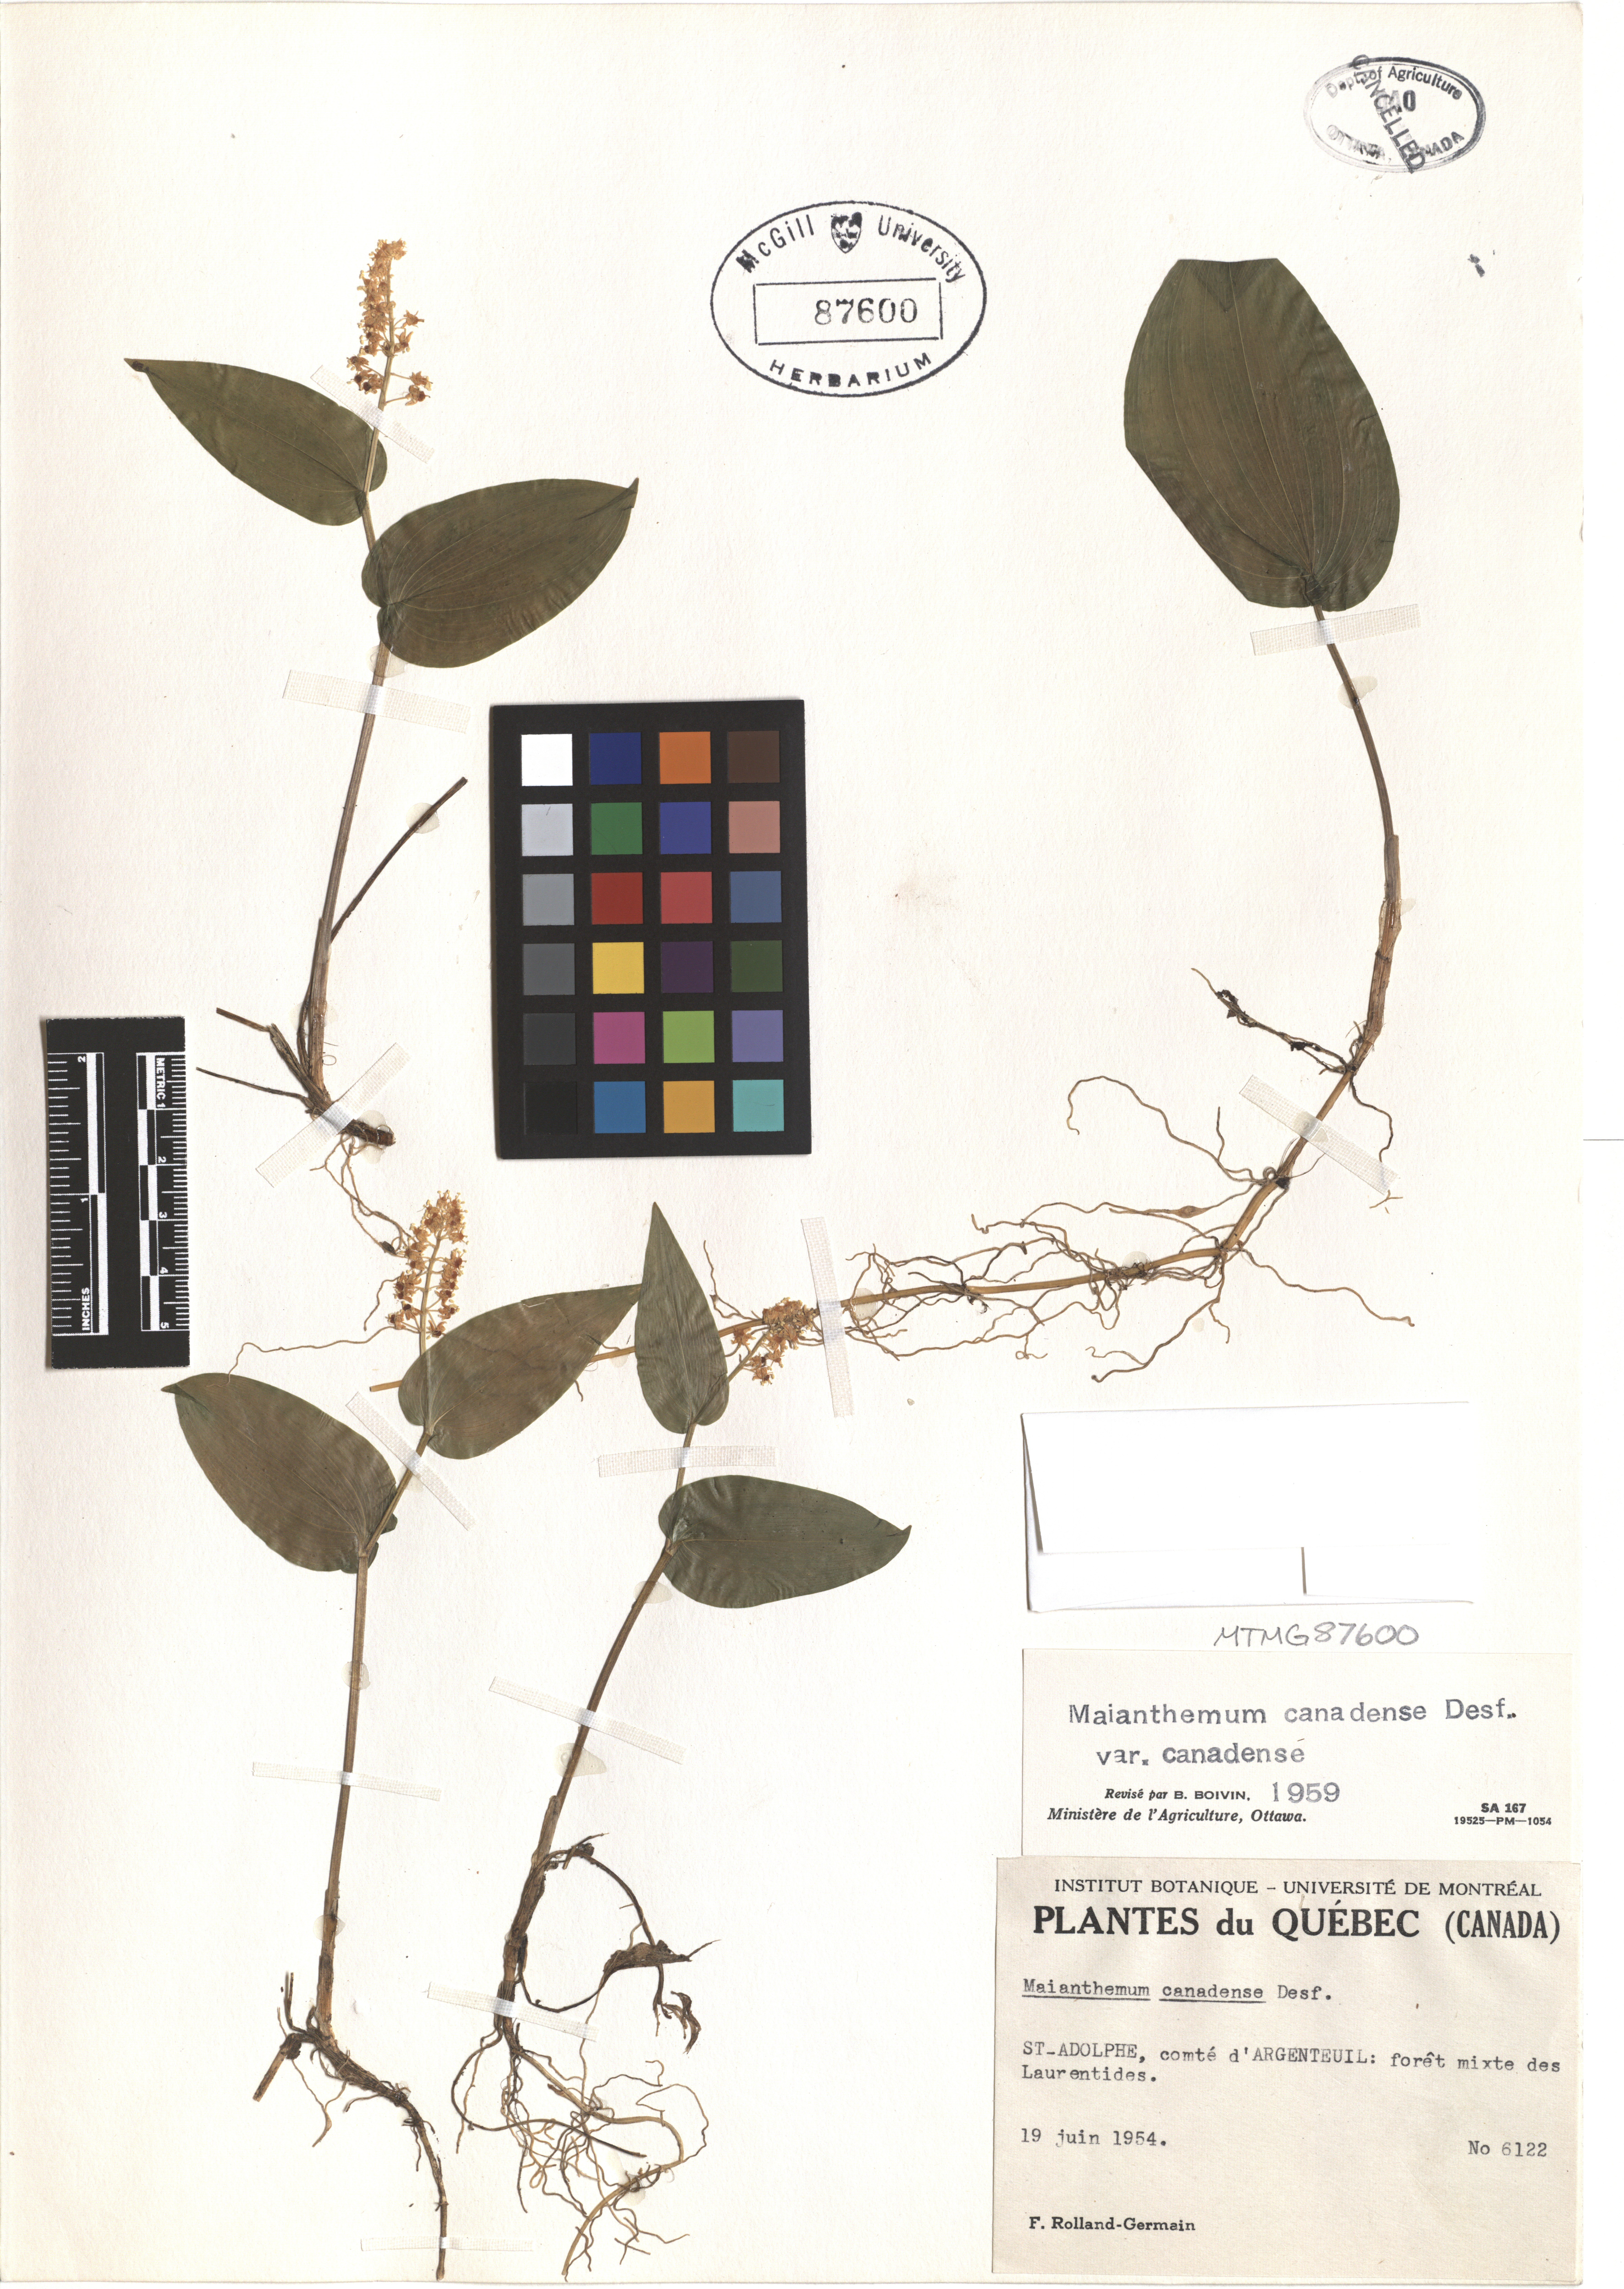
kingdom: Plantae
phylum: Tracheophyta
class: Liliopsida
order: Asparagales
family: Asparagaceae
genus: Maianthemum
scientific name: Maianthemum canadense
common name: False lily-of-the-valley
